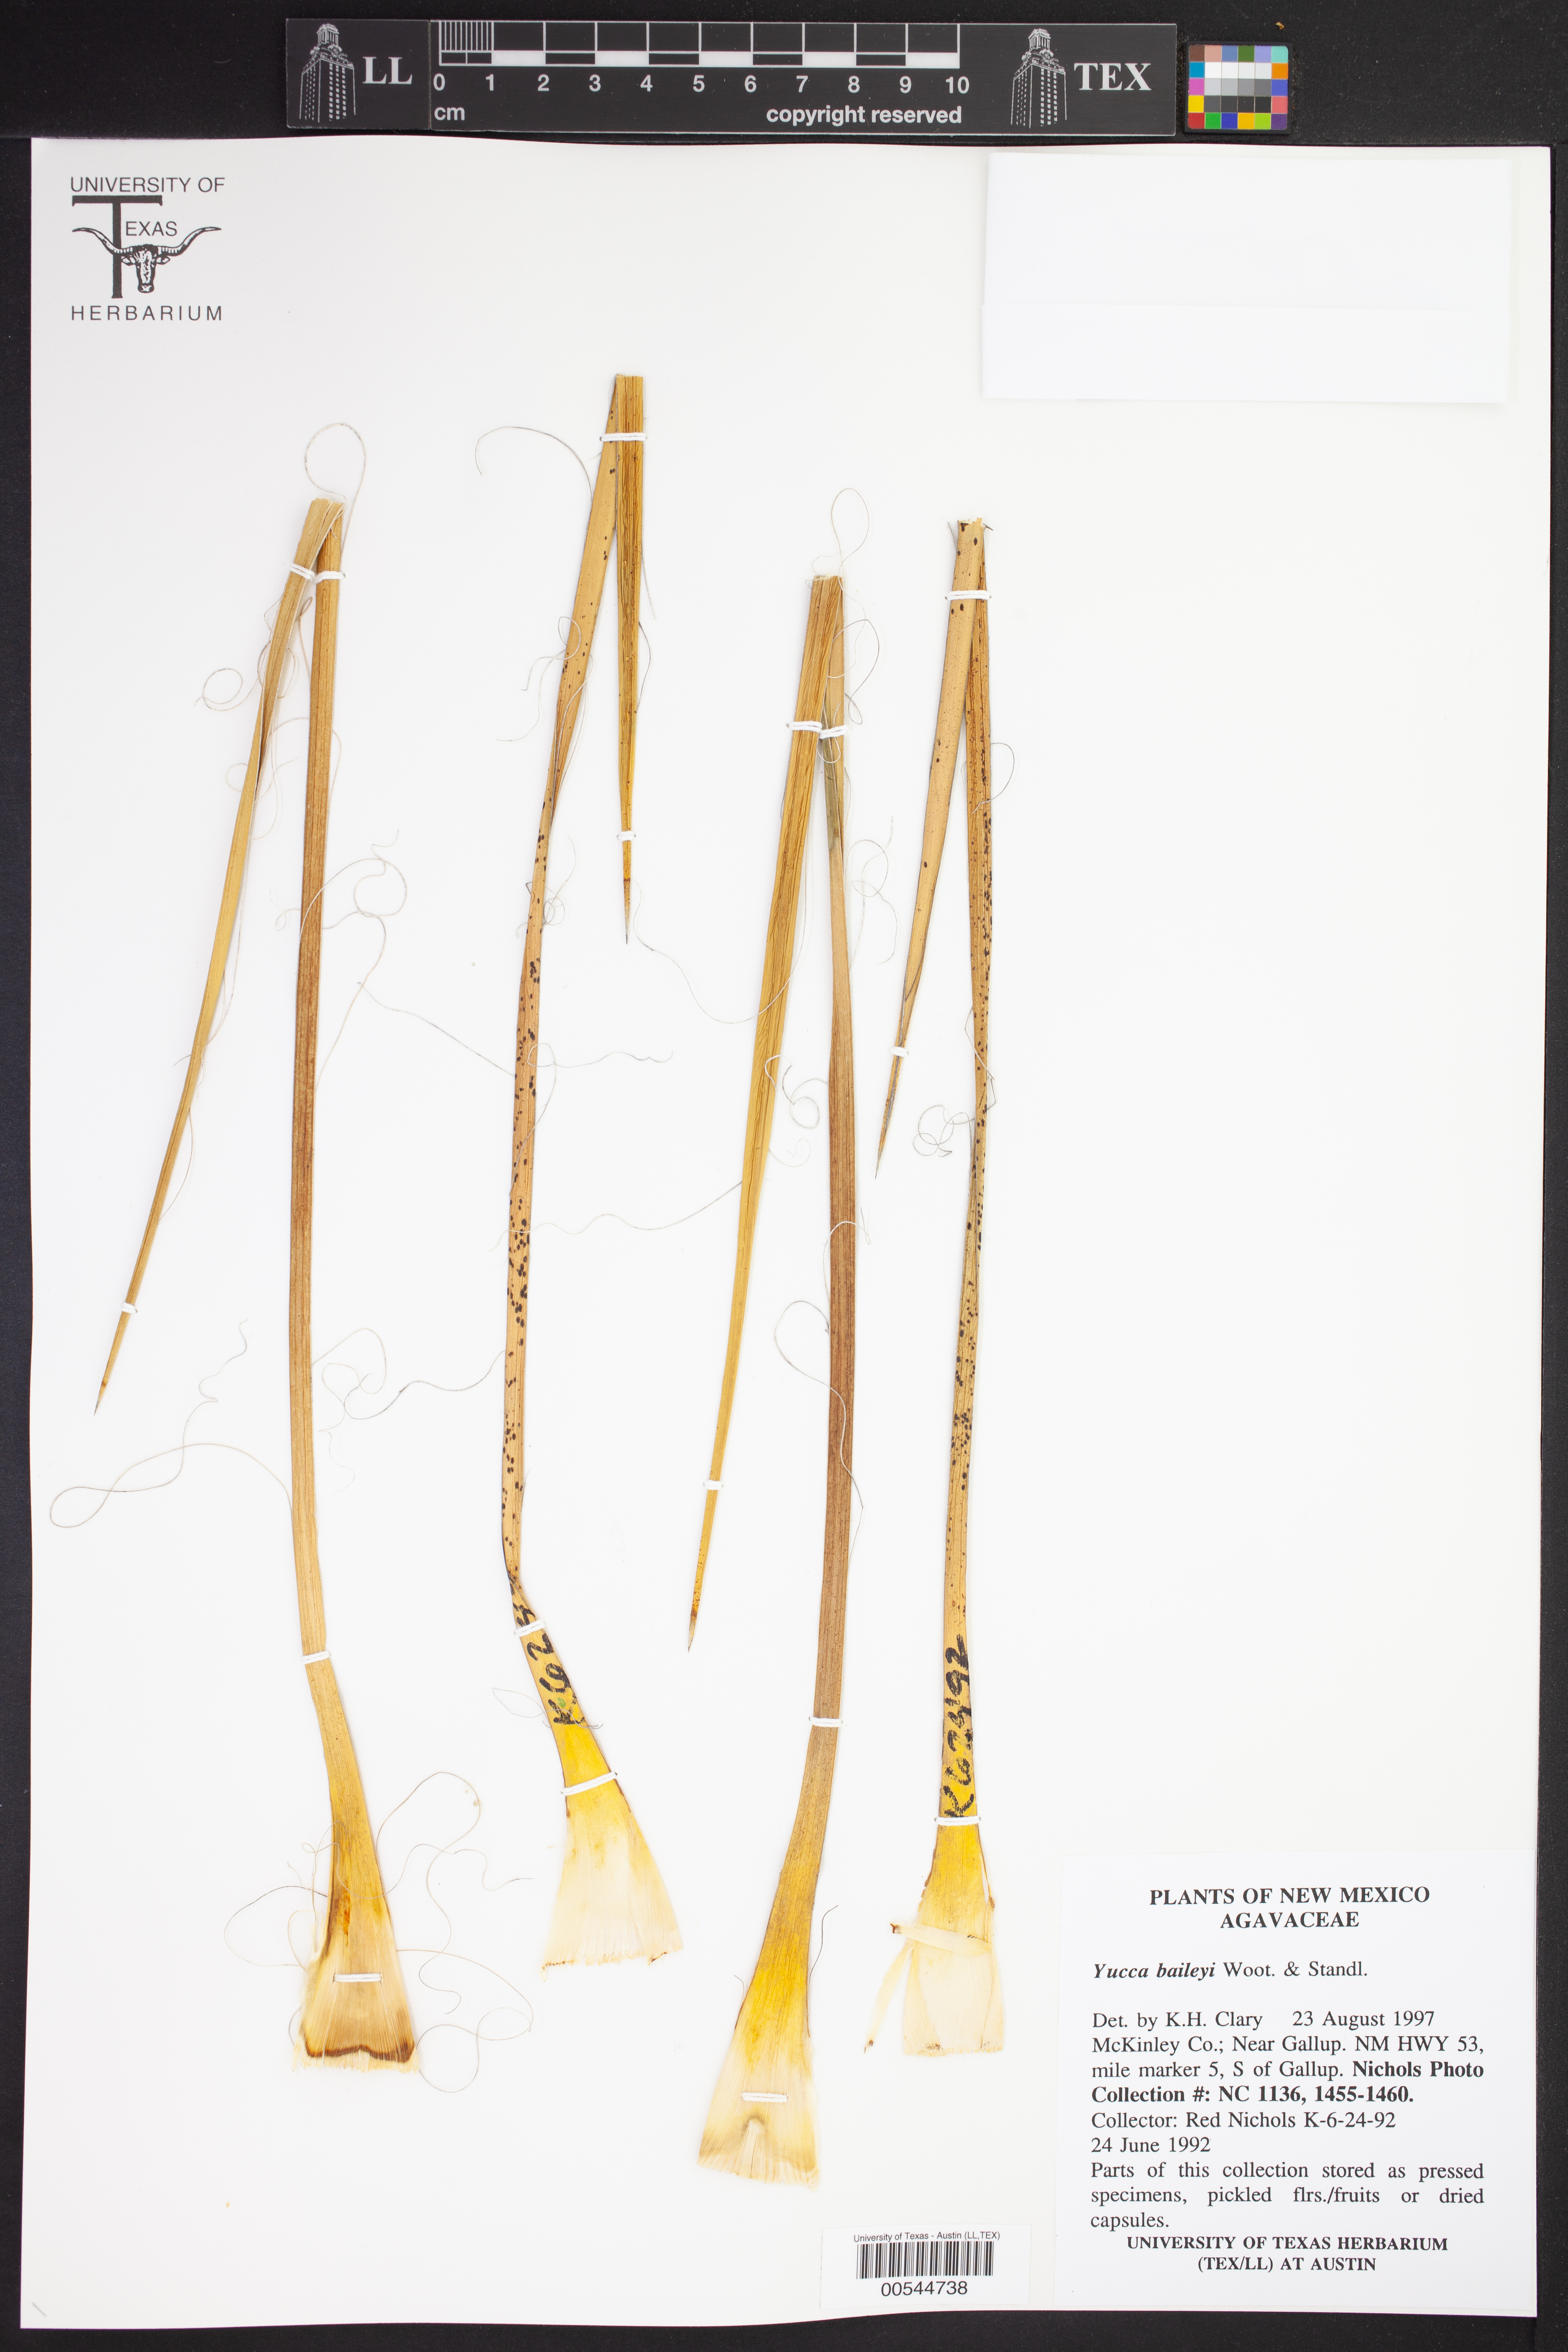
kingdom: Plantae
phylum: Tracheophyta
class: Liliopsida
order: Asparagales
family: Asparagaceae
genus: Yucca
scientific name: Yucca baileyi
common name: Alpine yucca
